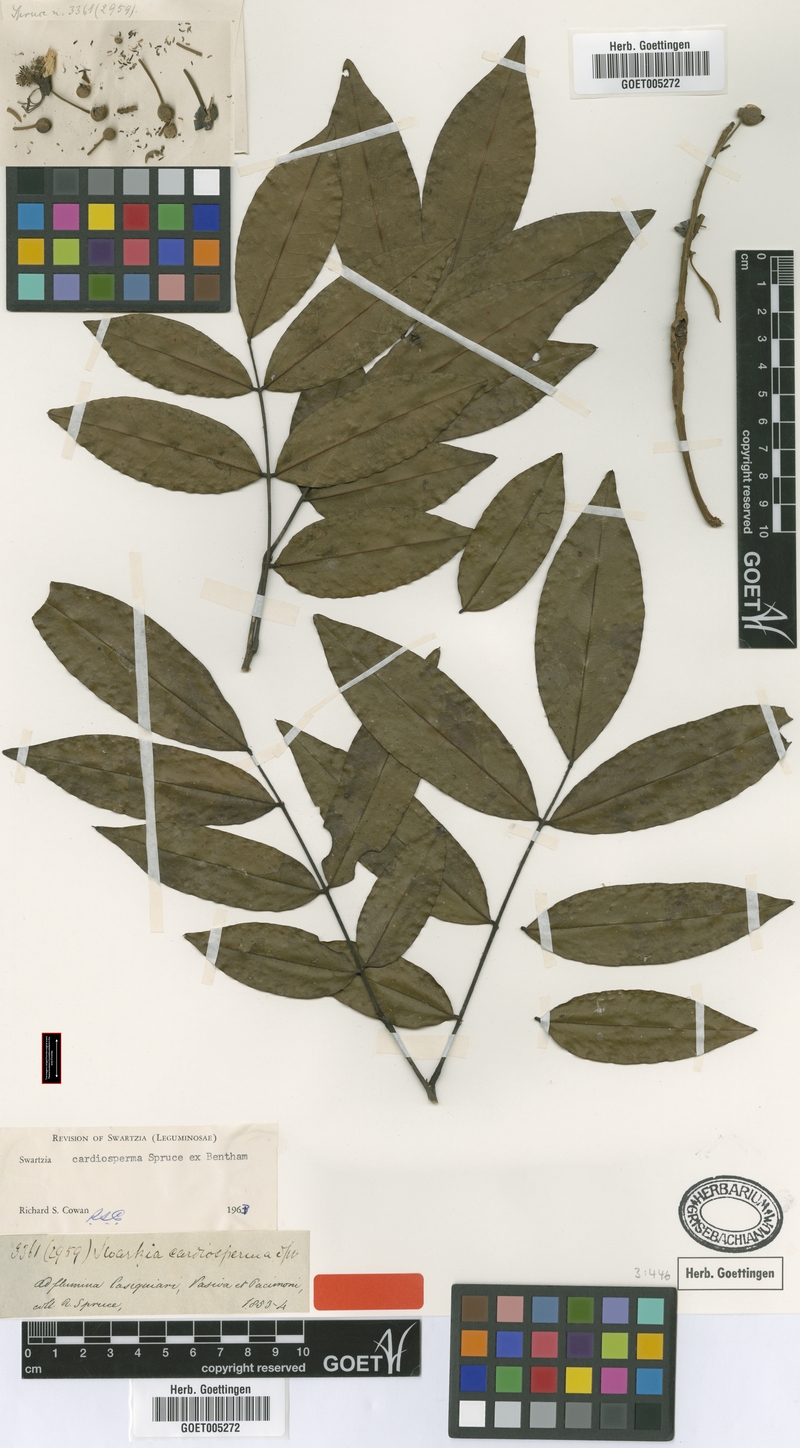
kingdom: Plantae
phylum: Tracheophyta
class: Magnoliopsida
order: Fabales
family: Fabaceae
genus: Swartzia
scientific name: Swartzia cardiosperma
